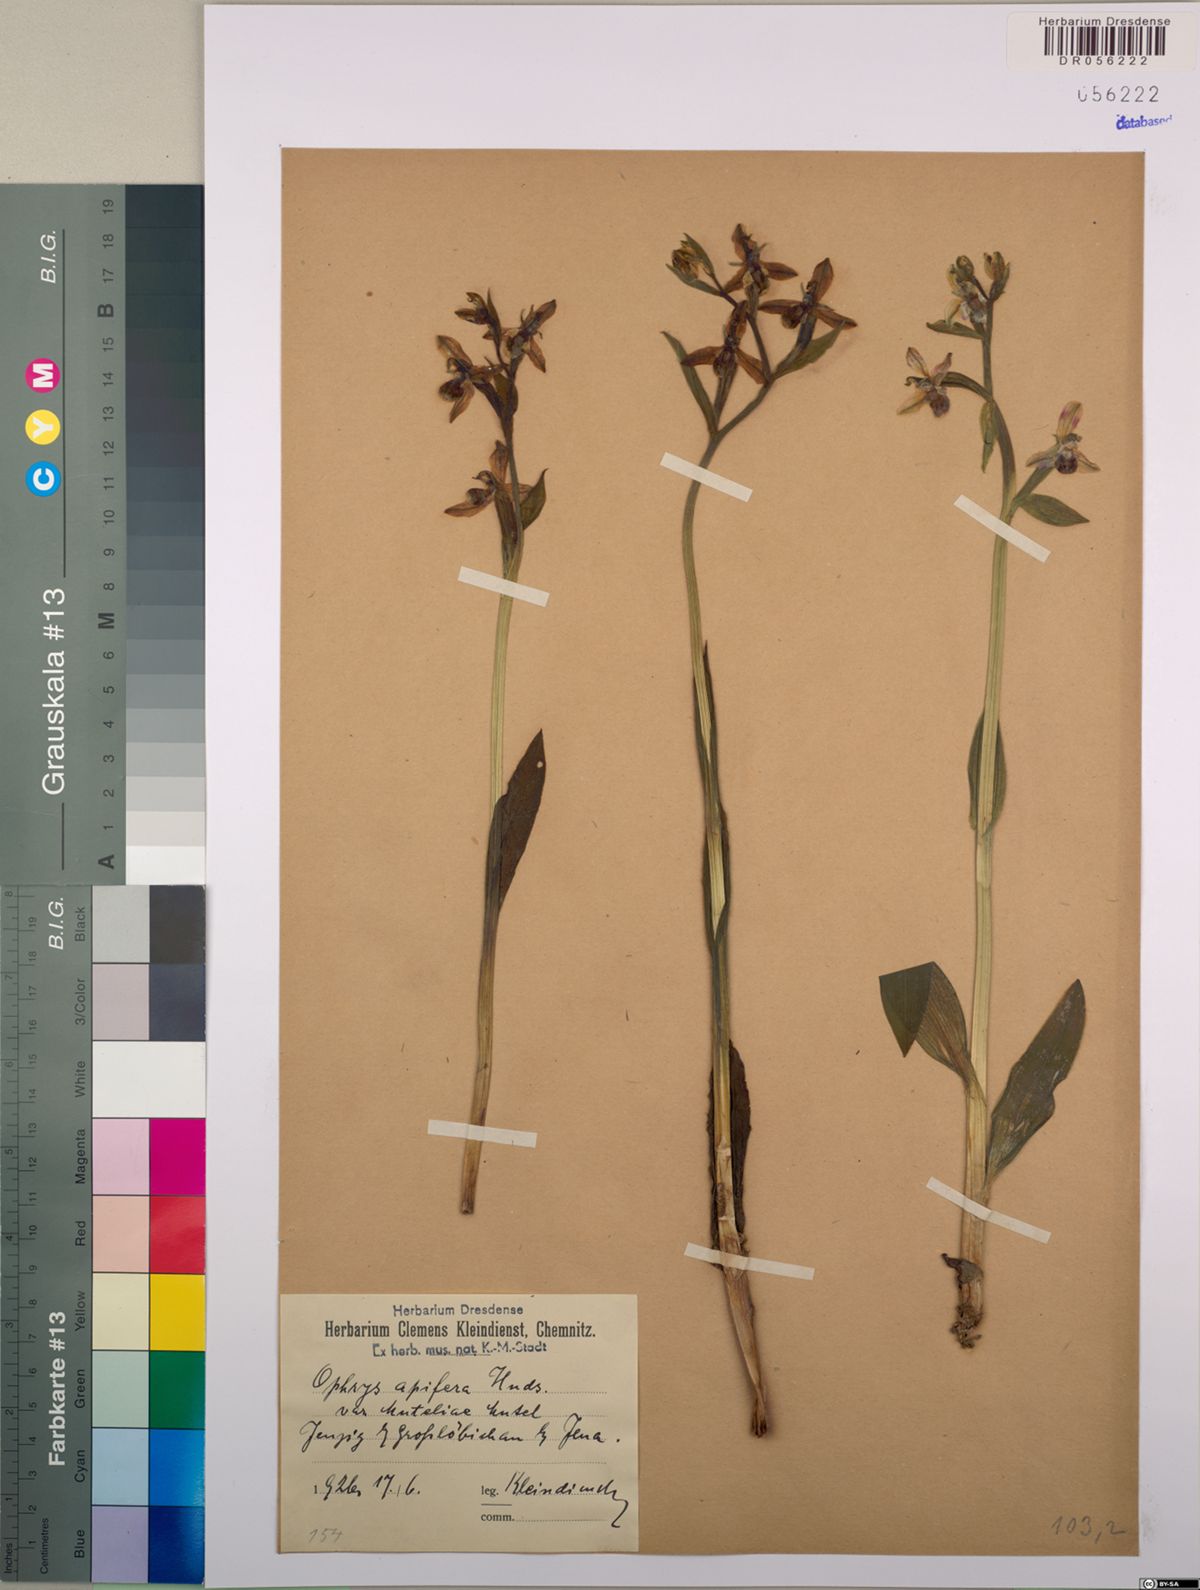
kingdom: Plantae
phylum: Tracheophyta
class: Liliopsida
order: Asparagales
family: Orchidaceae
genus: Ophrys
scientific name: Ophrys apifera
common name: Bee orchid
